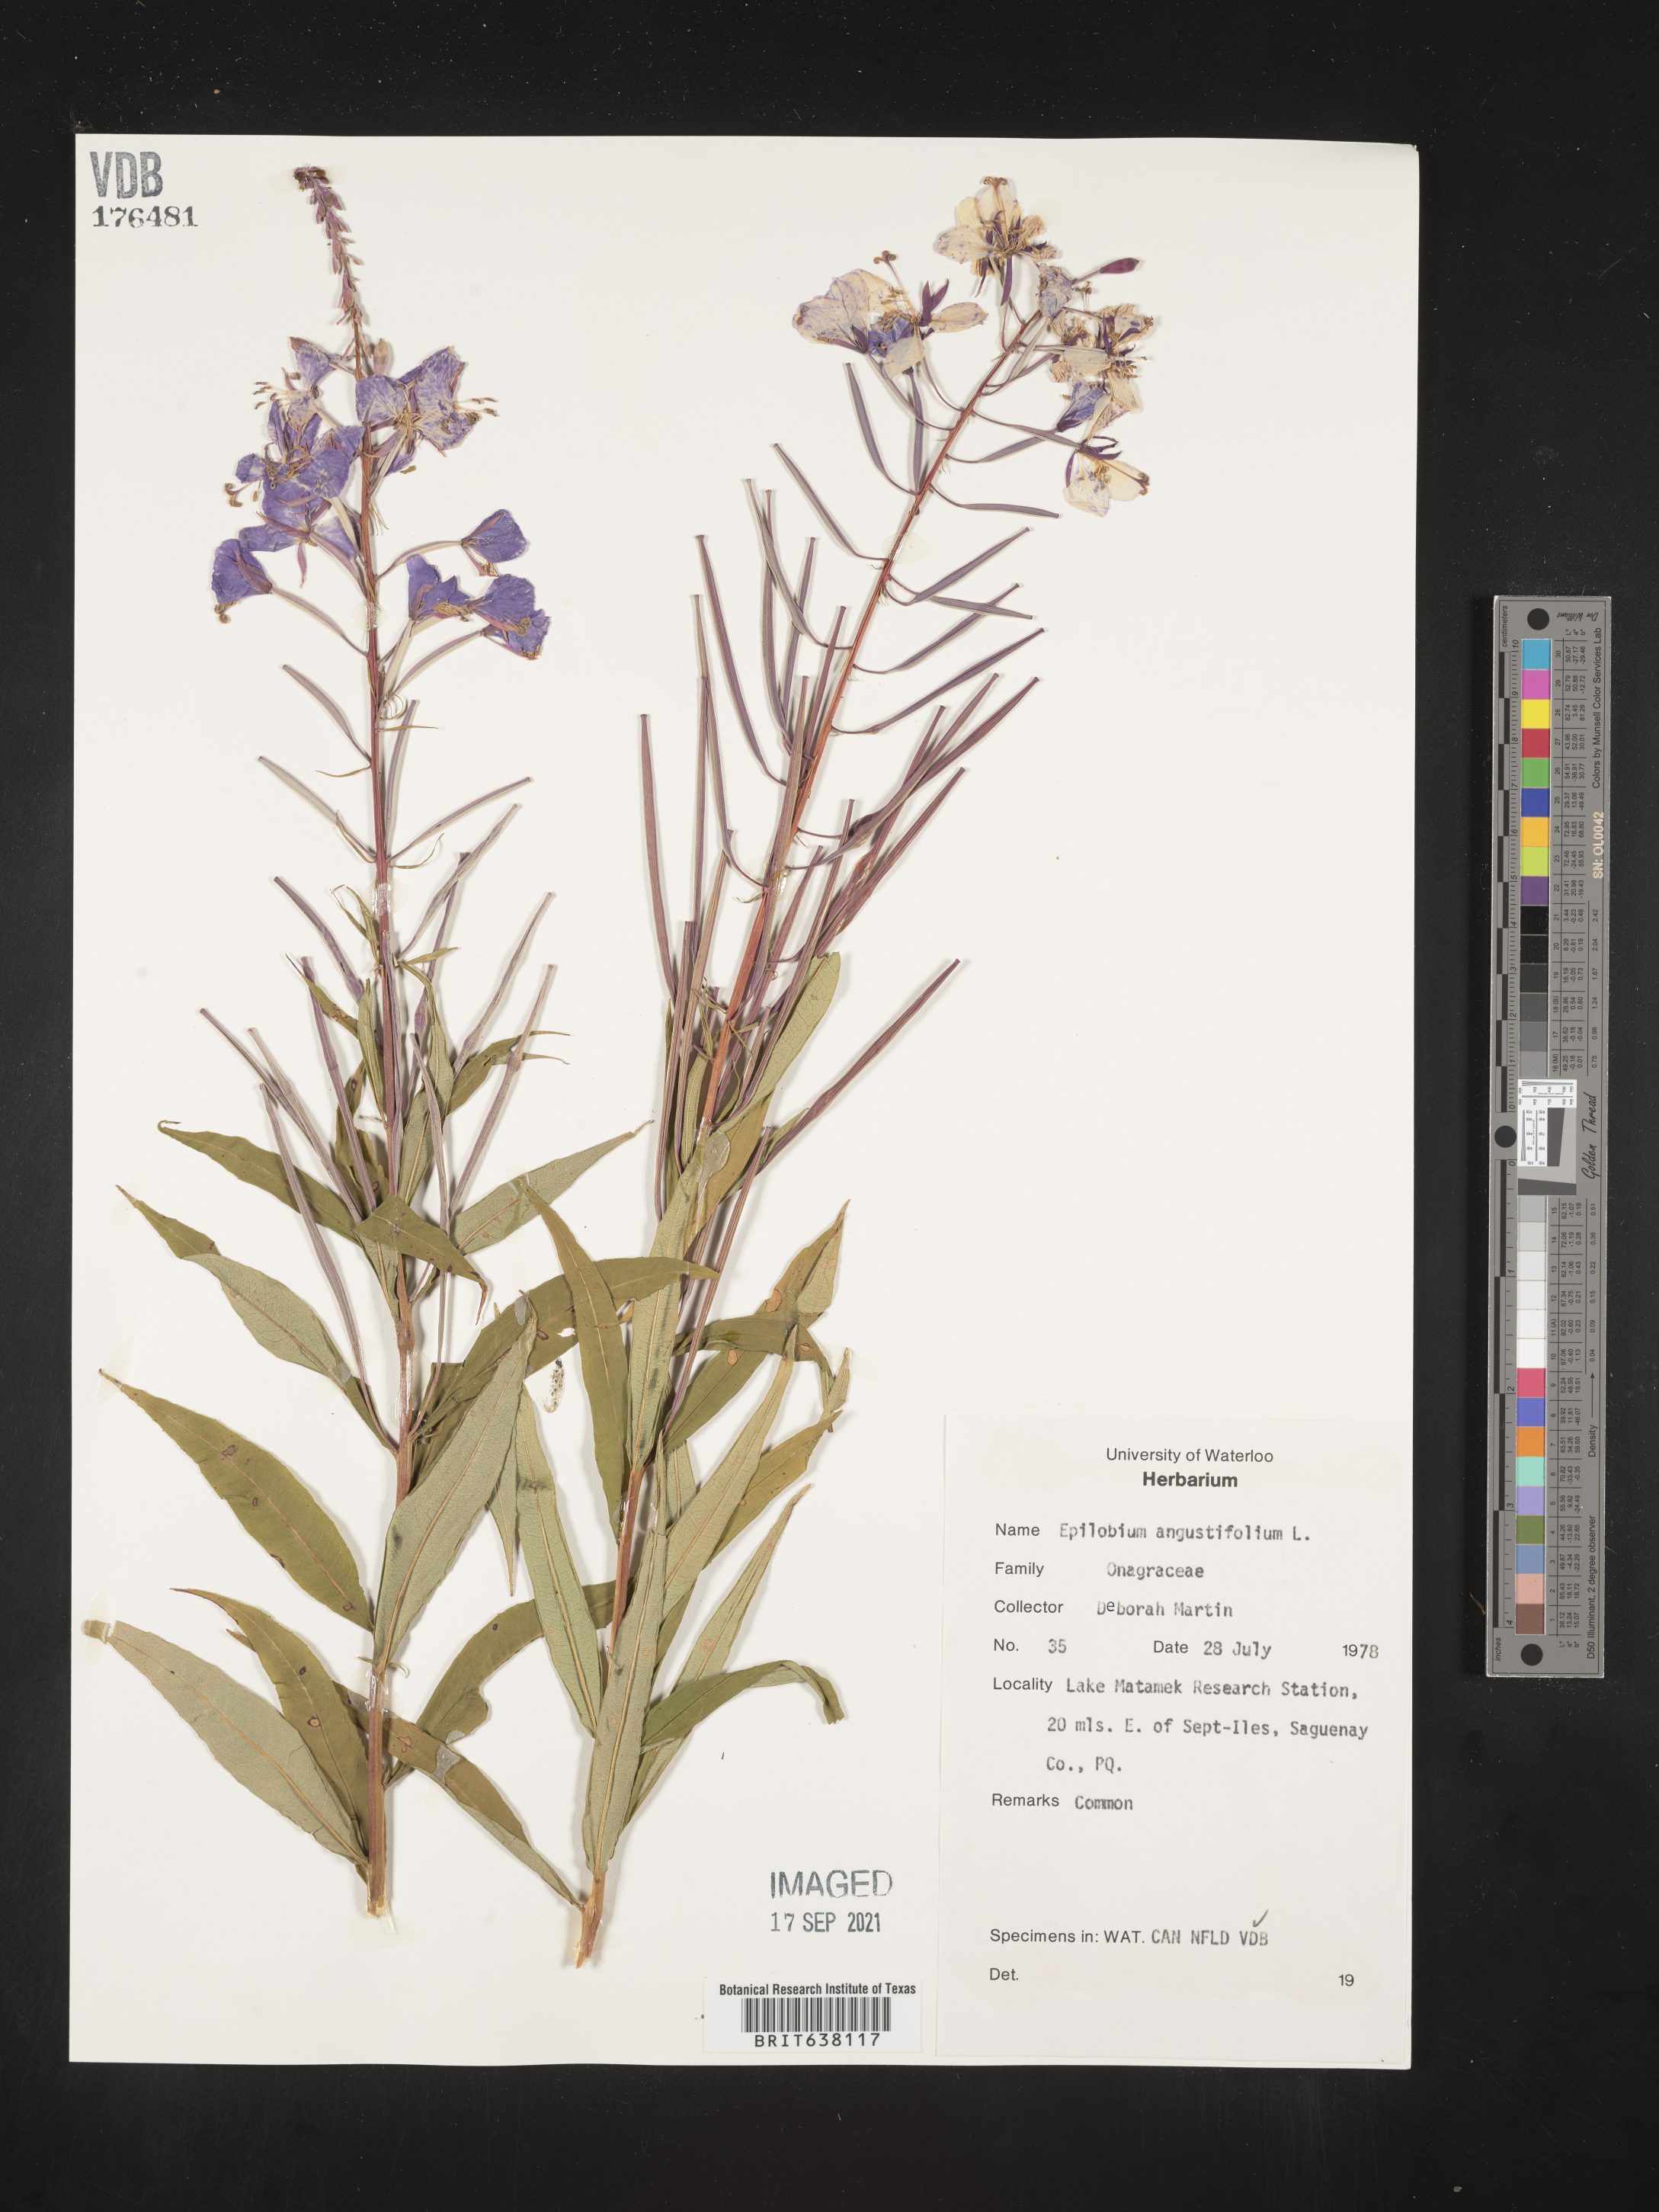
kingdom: Plantae
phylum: Tracheophyta
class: Magnoliopsida
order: Myrtales
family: Onagraceae
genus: Epilobium
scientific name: Epilobium
